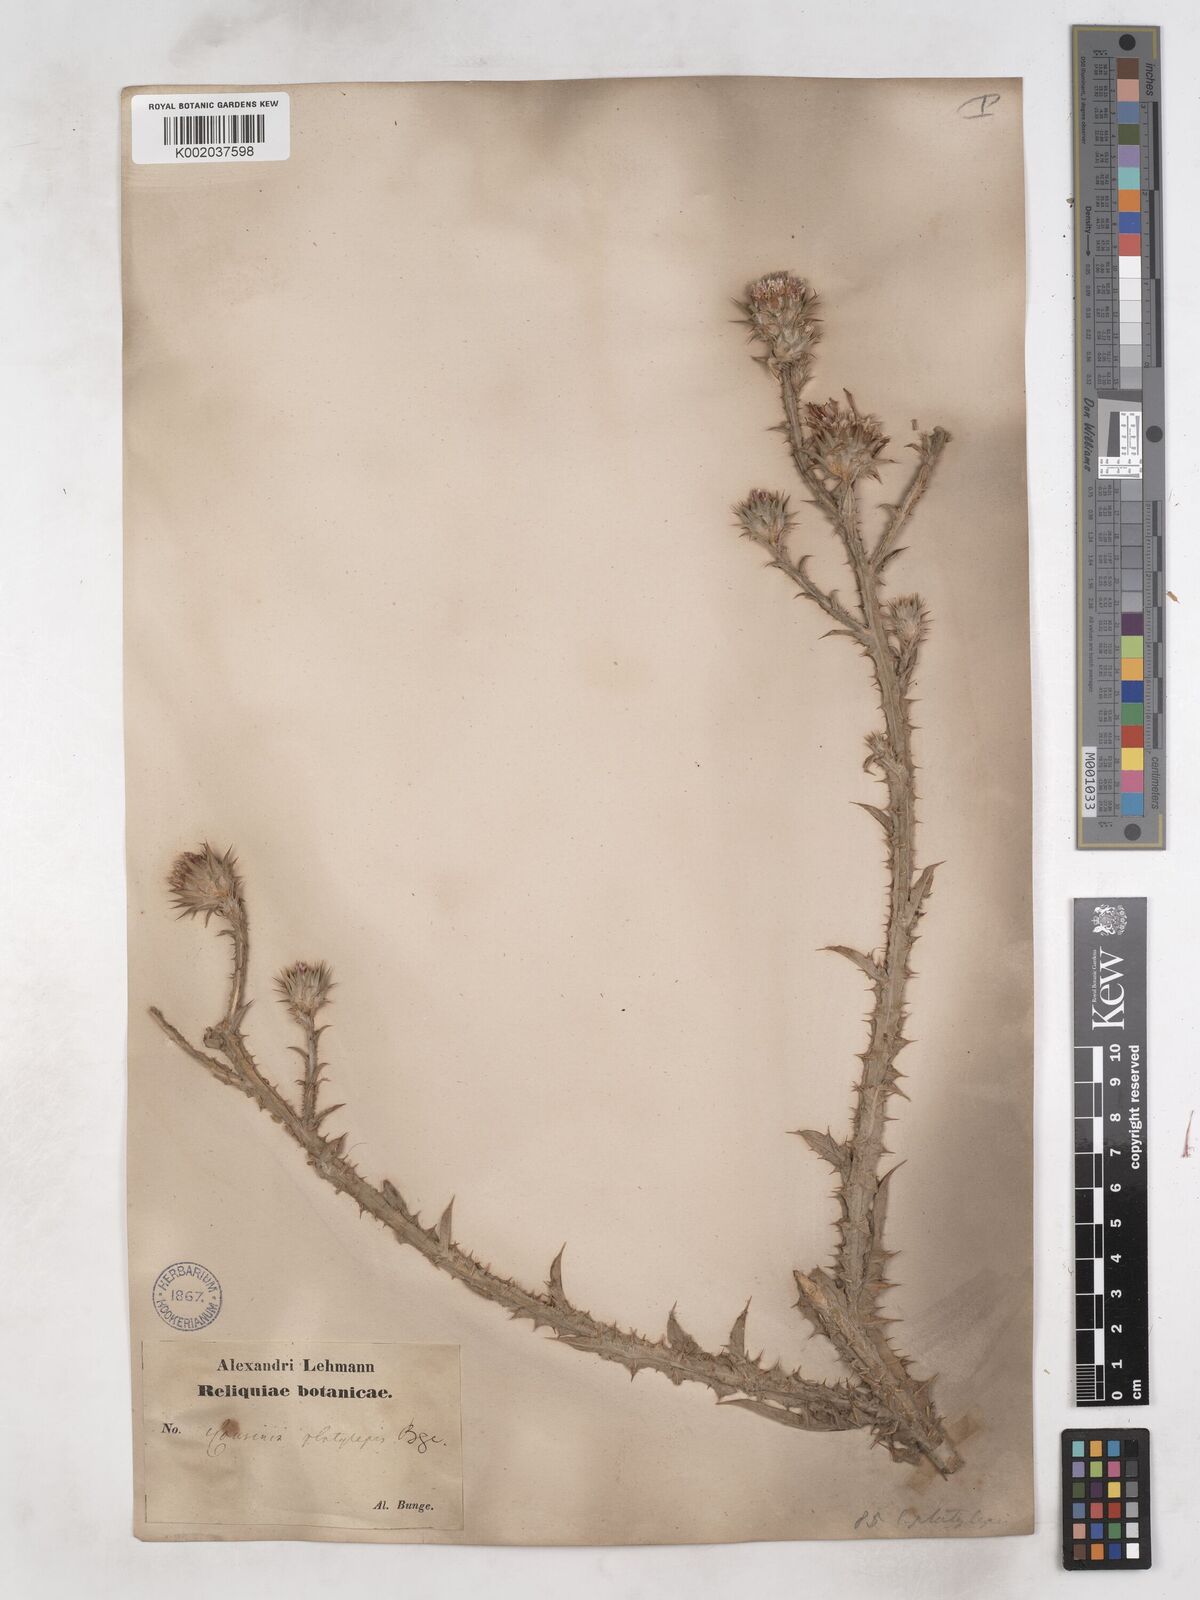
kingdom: Plantae
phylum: Tracheophyta
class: Magnoliopsida
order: Asterales
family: Asteraceae
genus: Cousinia
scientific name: Cousinia platylepis
